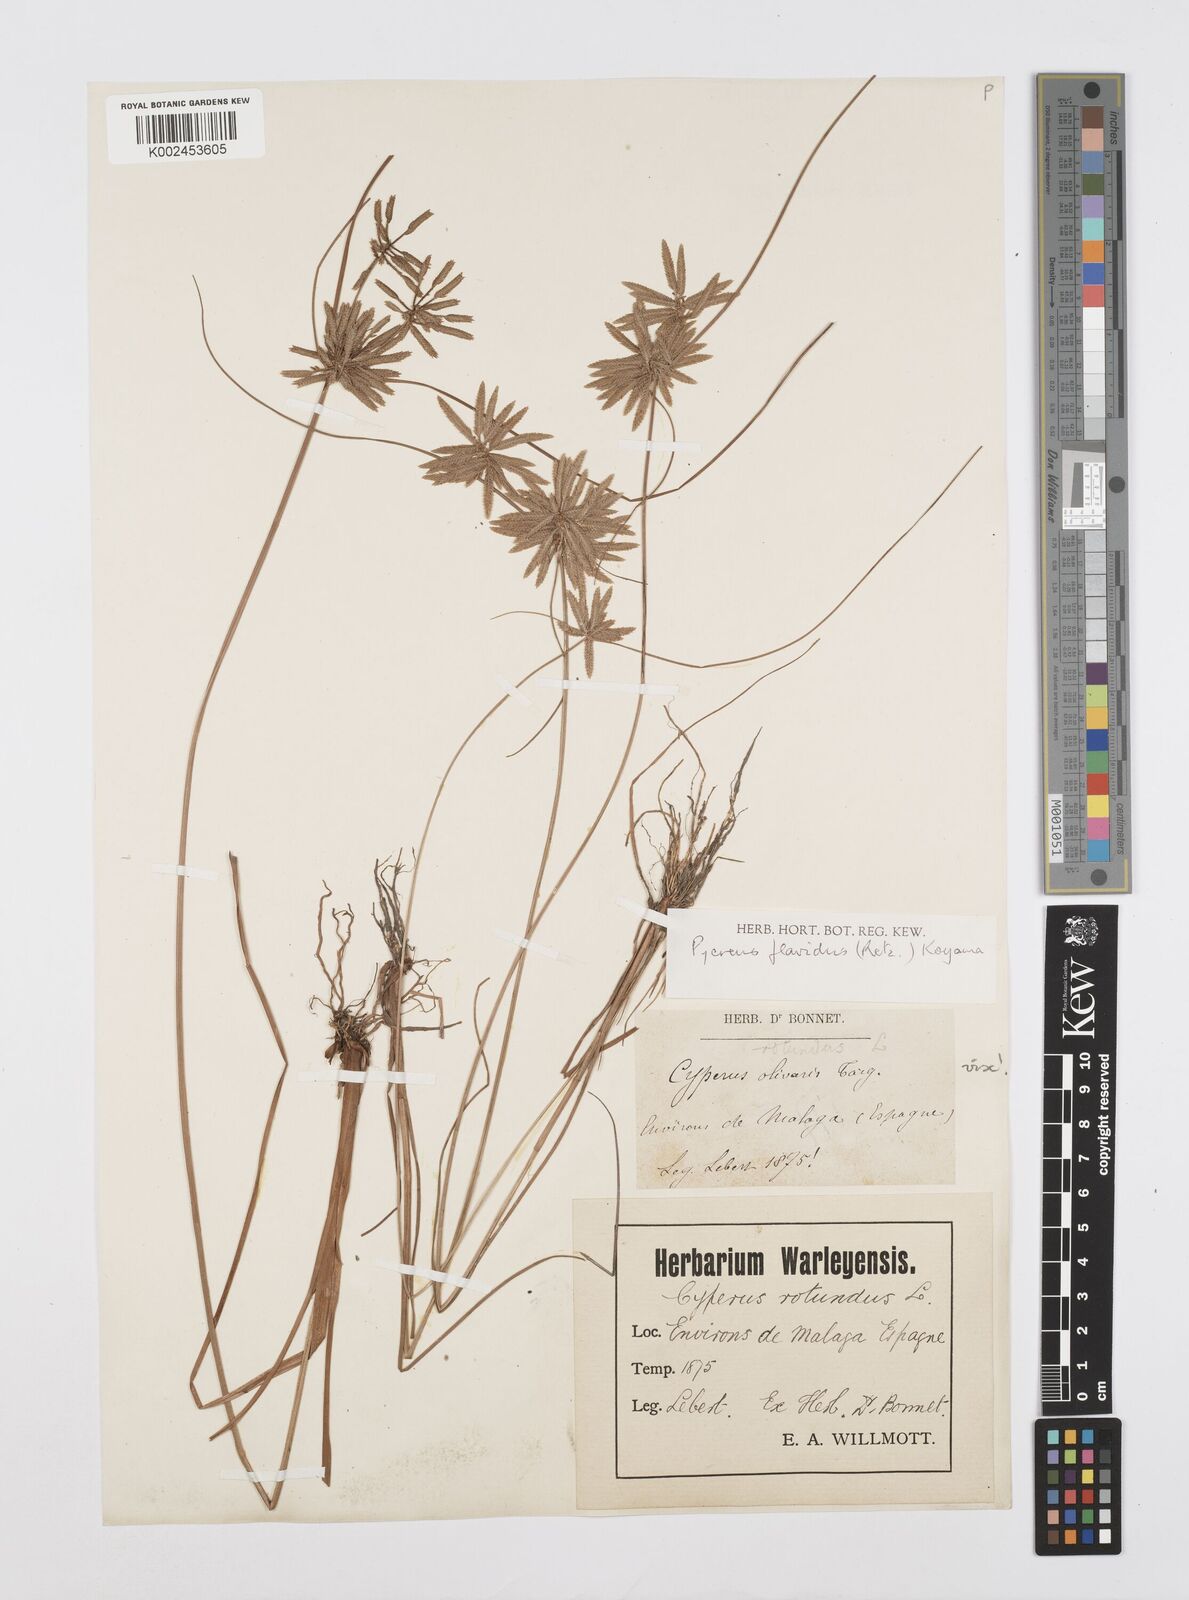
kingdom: Plantae
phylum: Tracheophyta
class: Liliopsida
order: Poales
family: Cyperaceae
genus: Cyperus
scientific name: Cyperus flavidus
